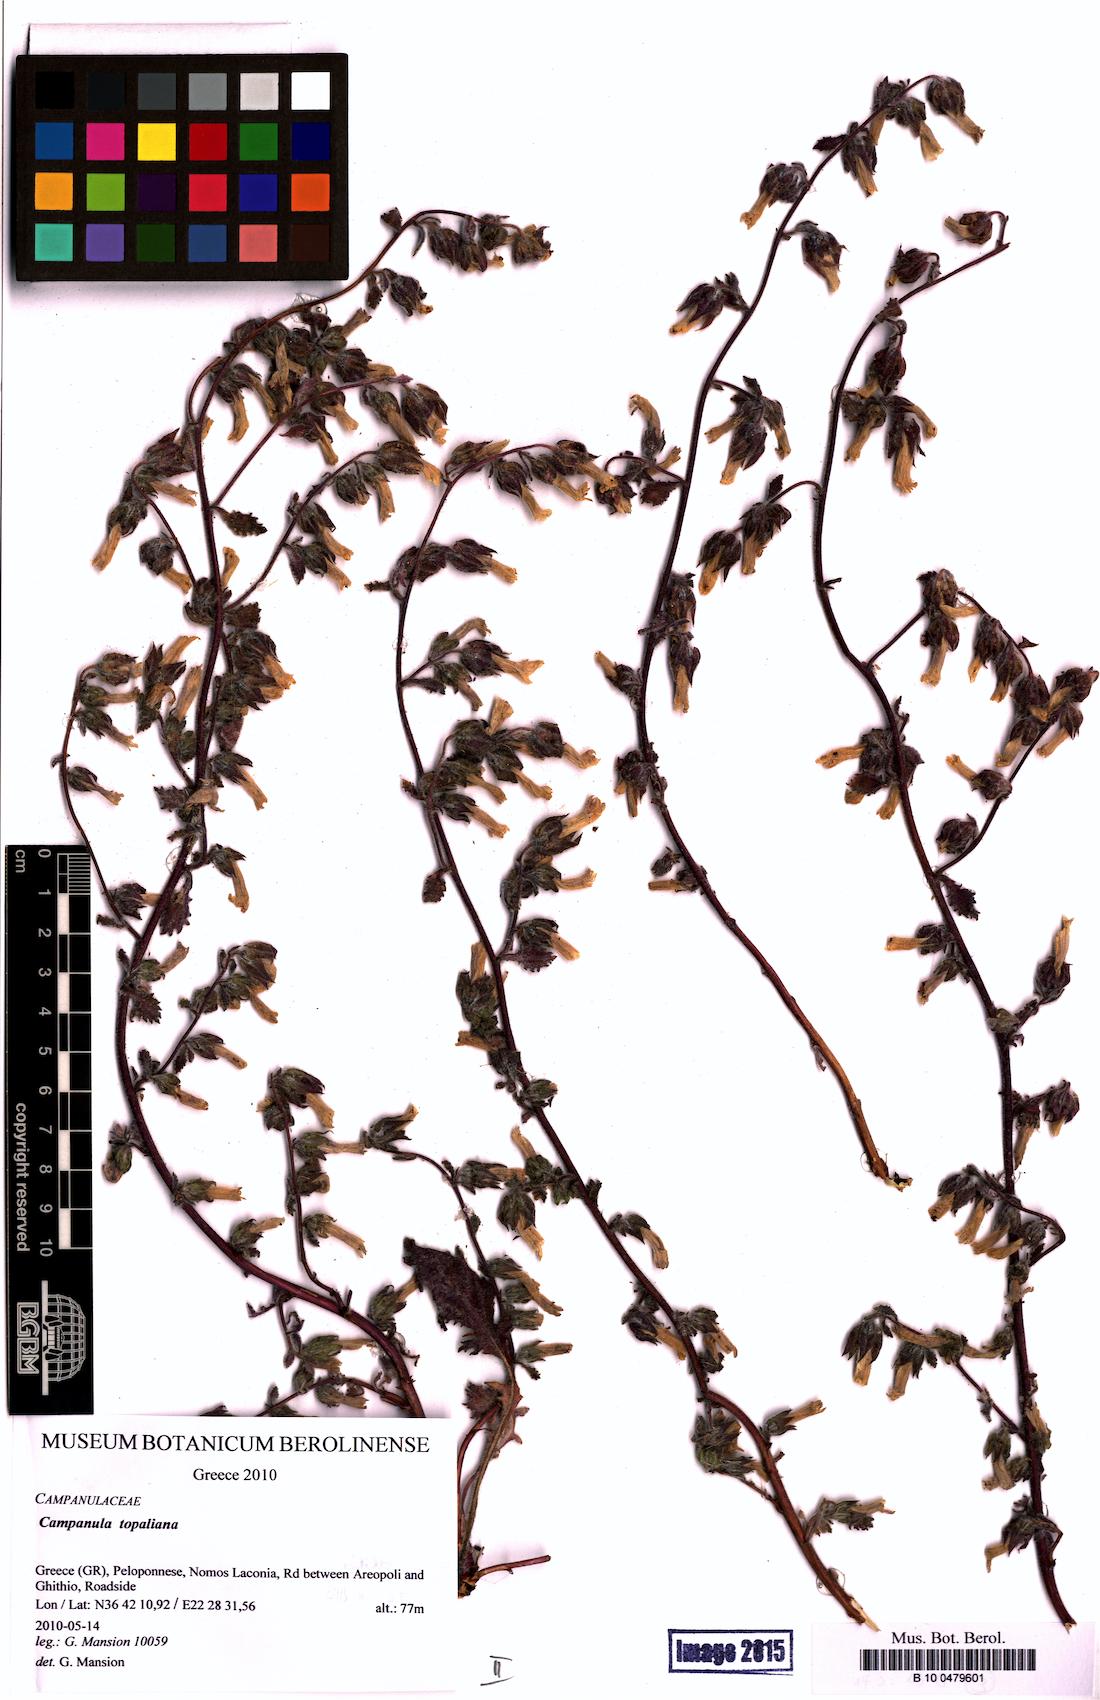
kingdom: Plantae
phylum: Tracheophyta
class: Magnoliopsida
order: Asterales
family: Campanulaceae
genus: Campanula
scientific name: Campanula topaliana
